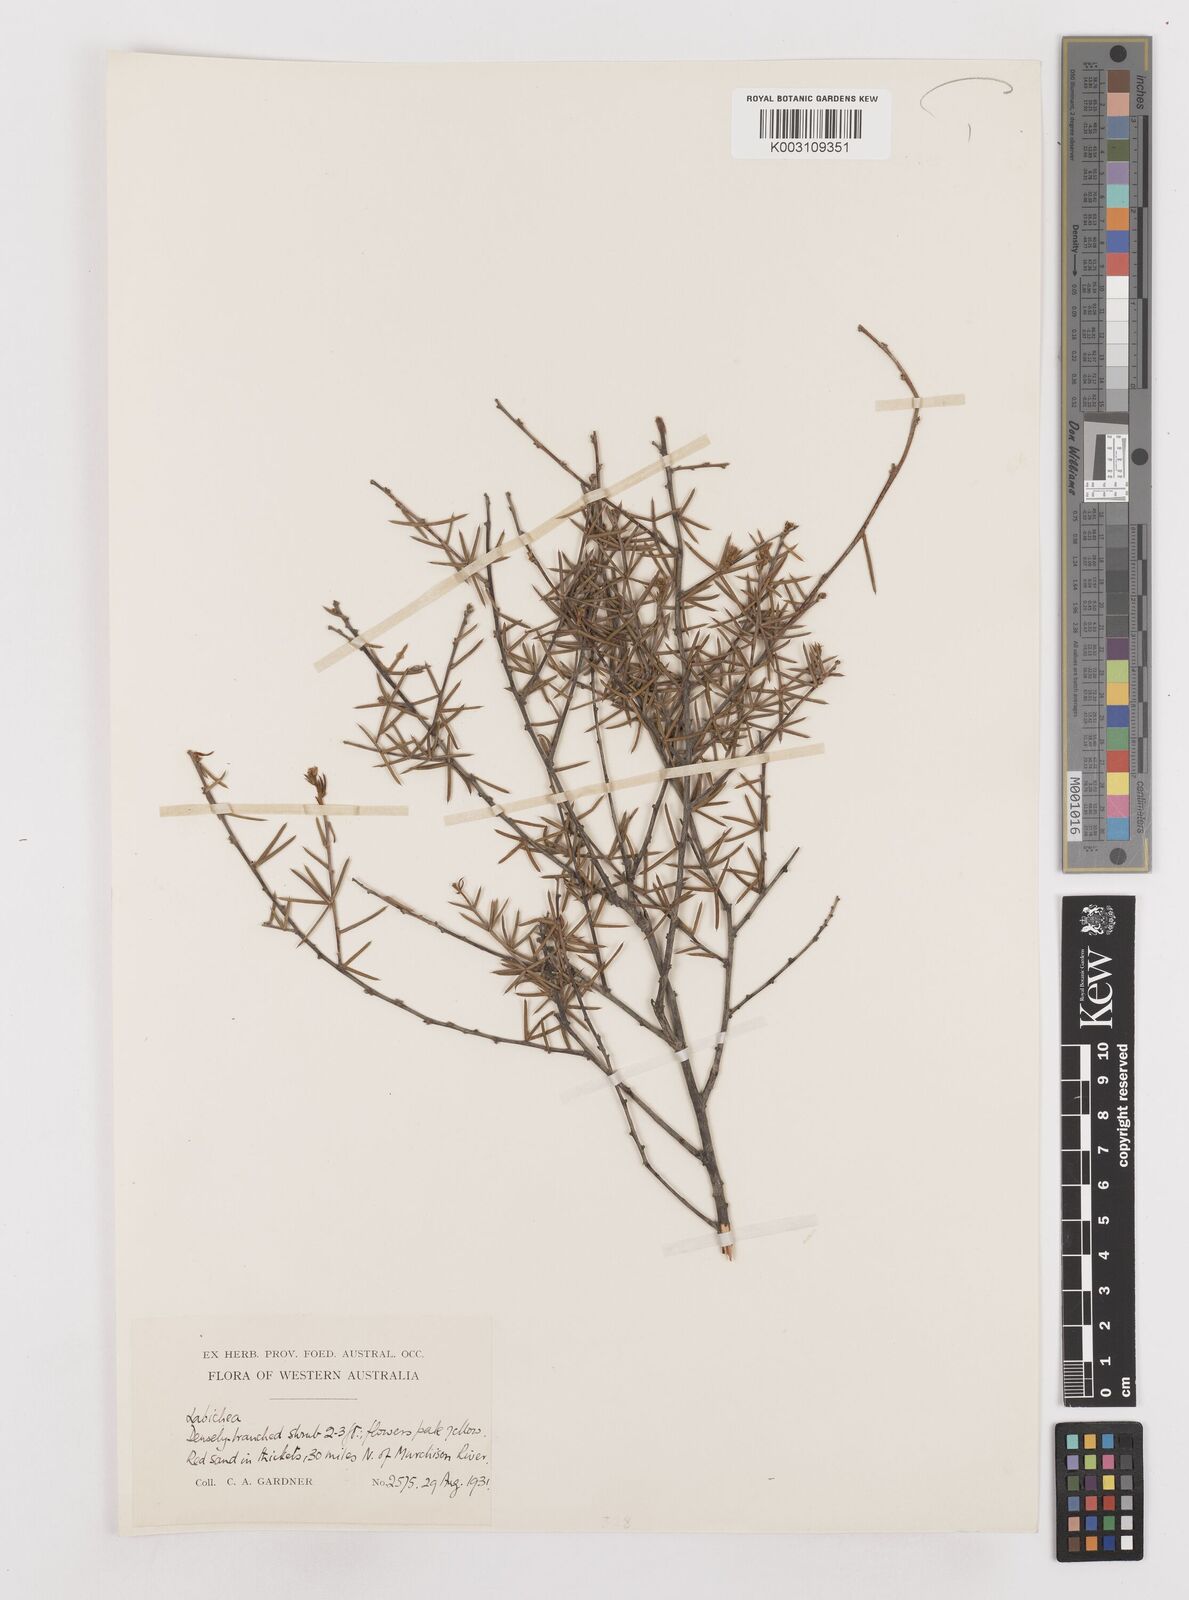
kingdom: Plantae
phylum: Tracheophyta
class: Magnoliopsida
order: Fabales
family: Fabaceae
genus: Labichea
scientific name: Labichea
